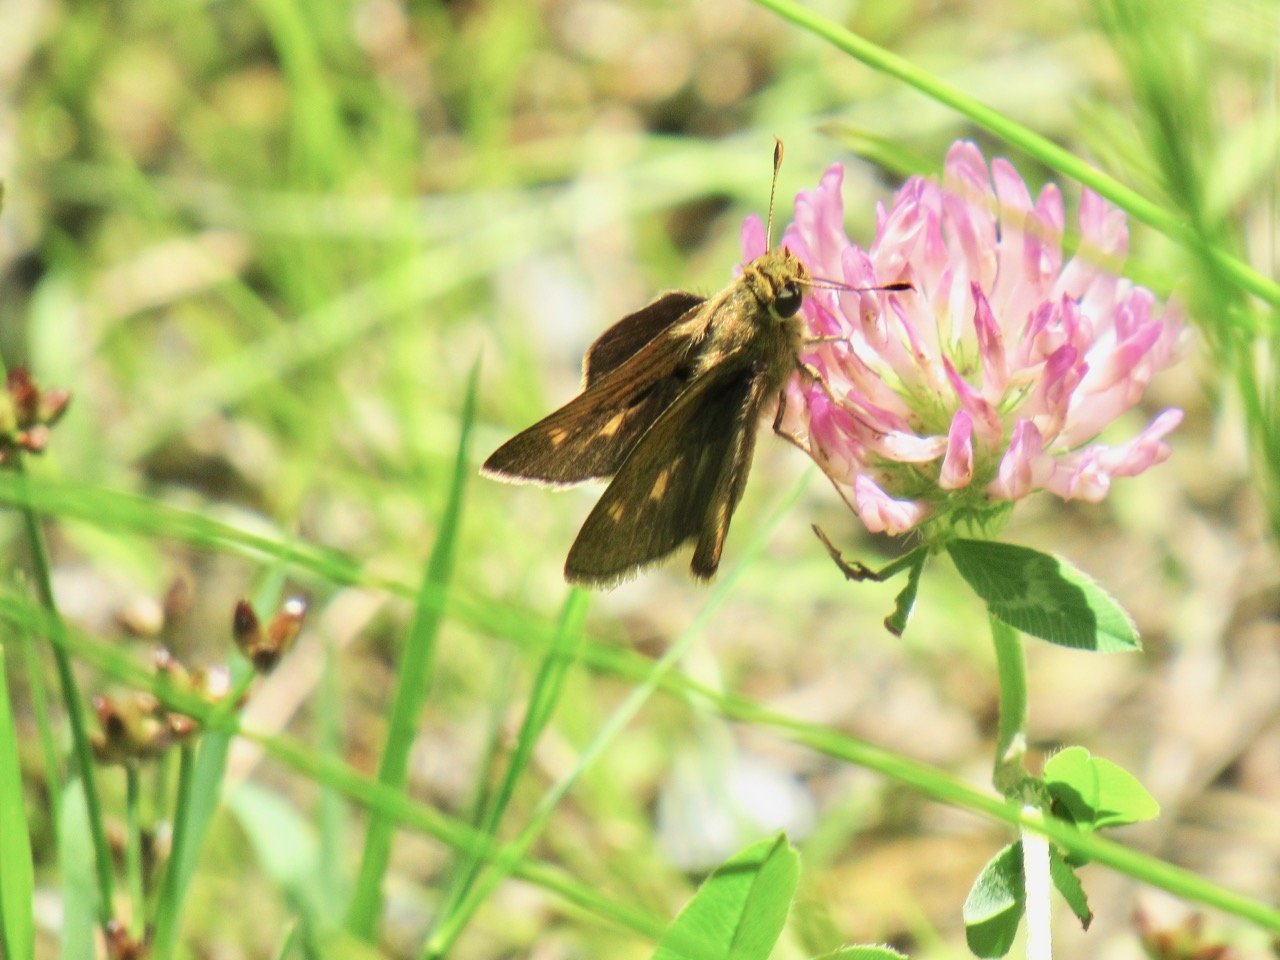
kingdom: Animalia
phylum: Arthropoda
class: Insecta
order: Lepidoptera
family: Hesperiidae
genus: Polites
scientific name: Polites egeremet
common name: Northern Broken-Dash
